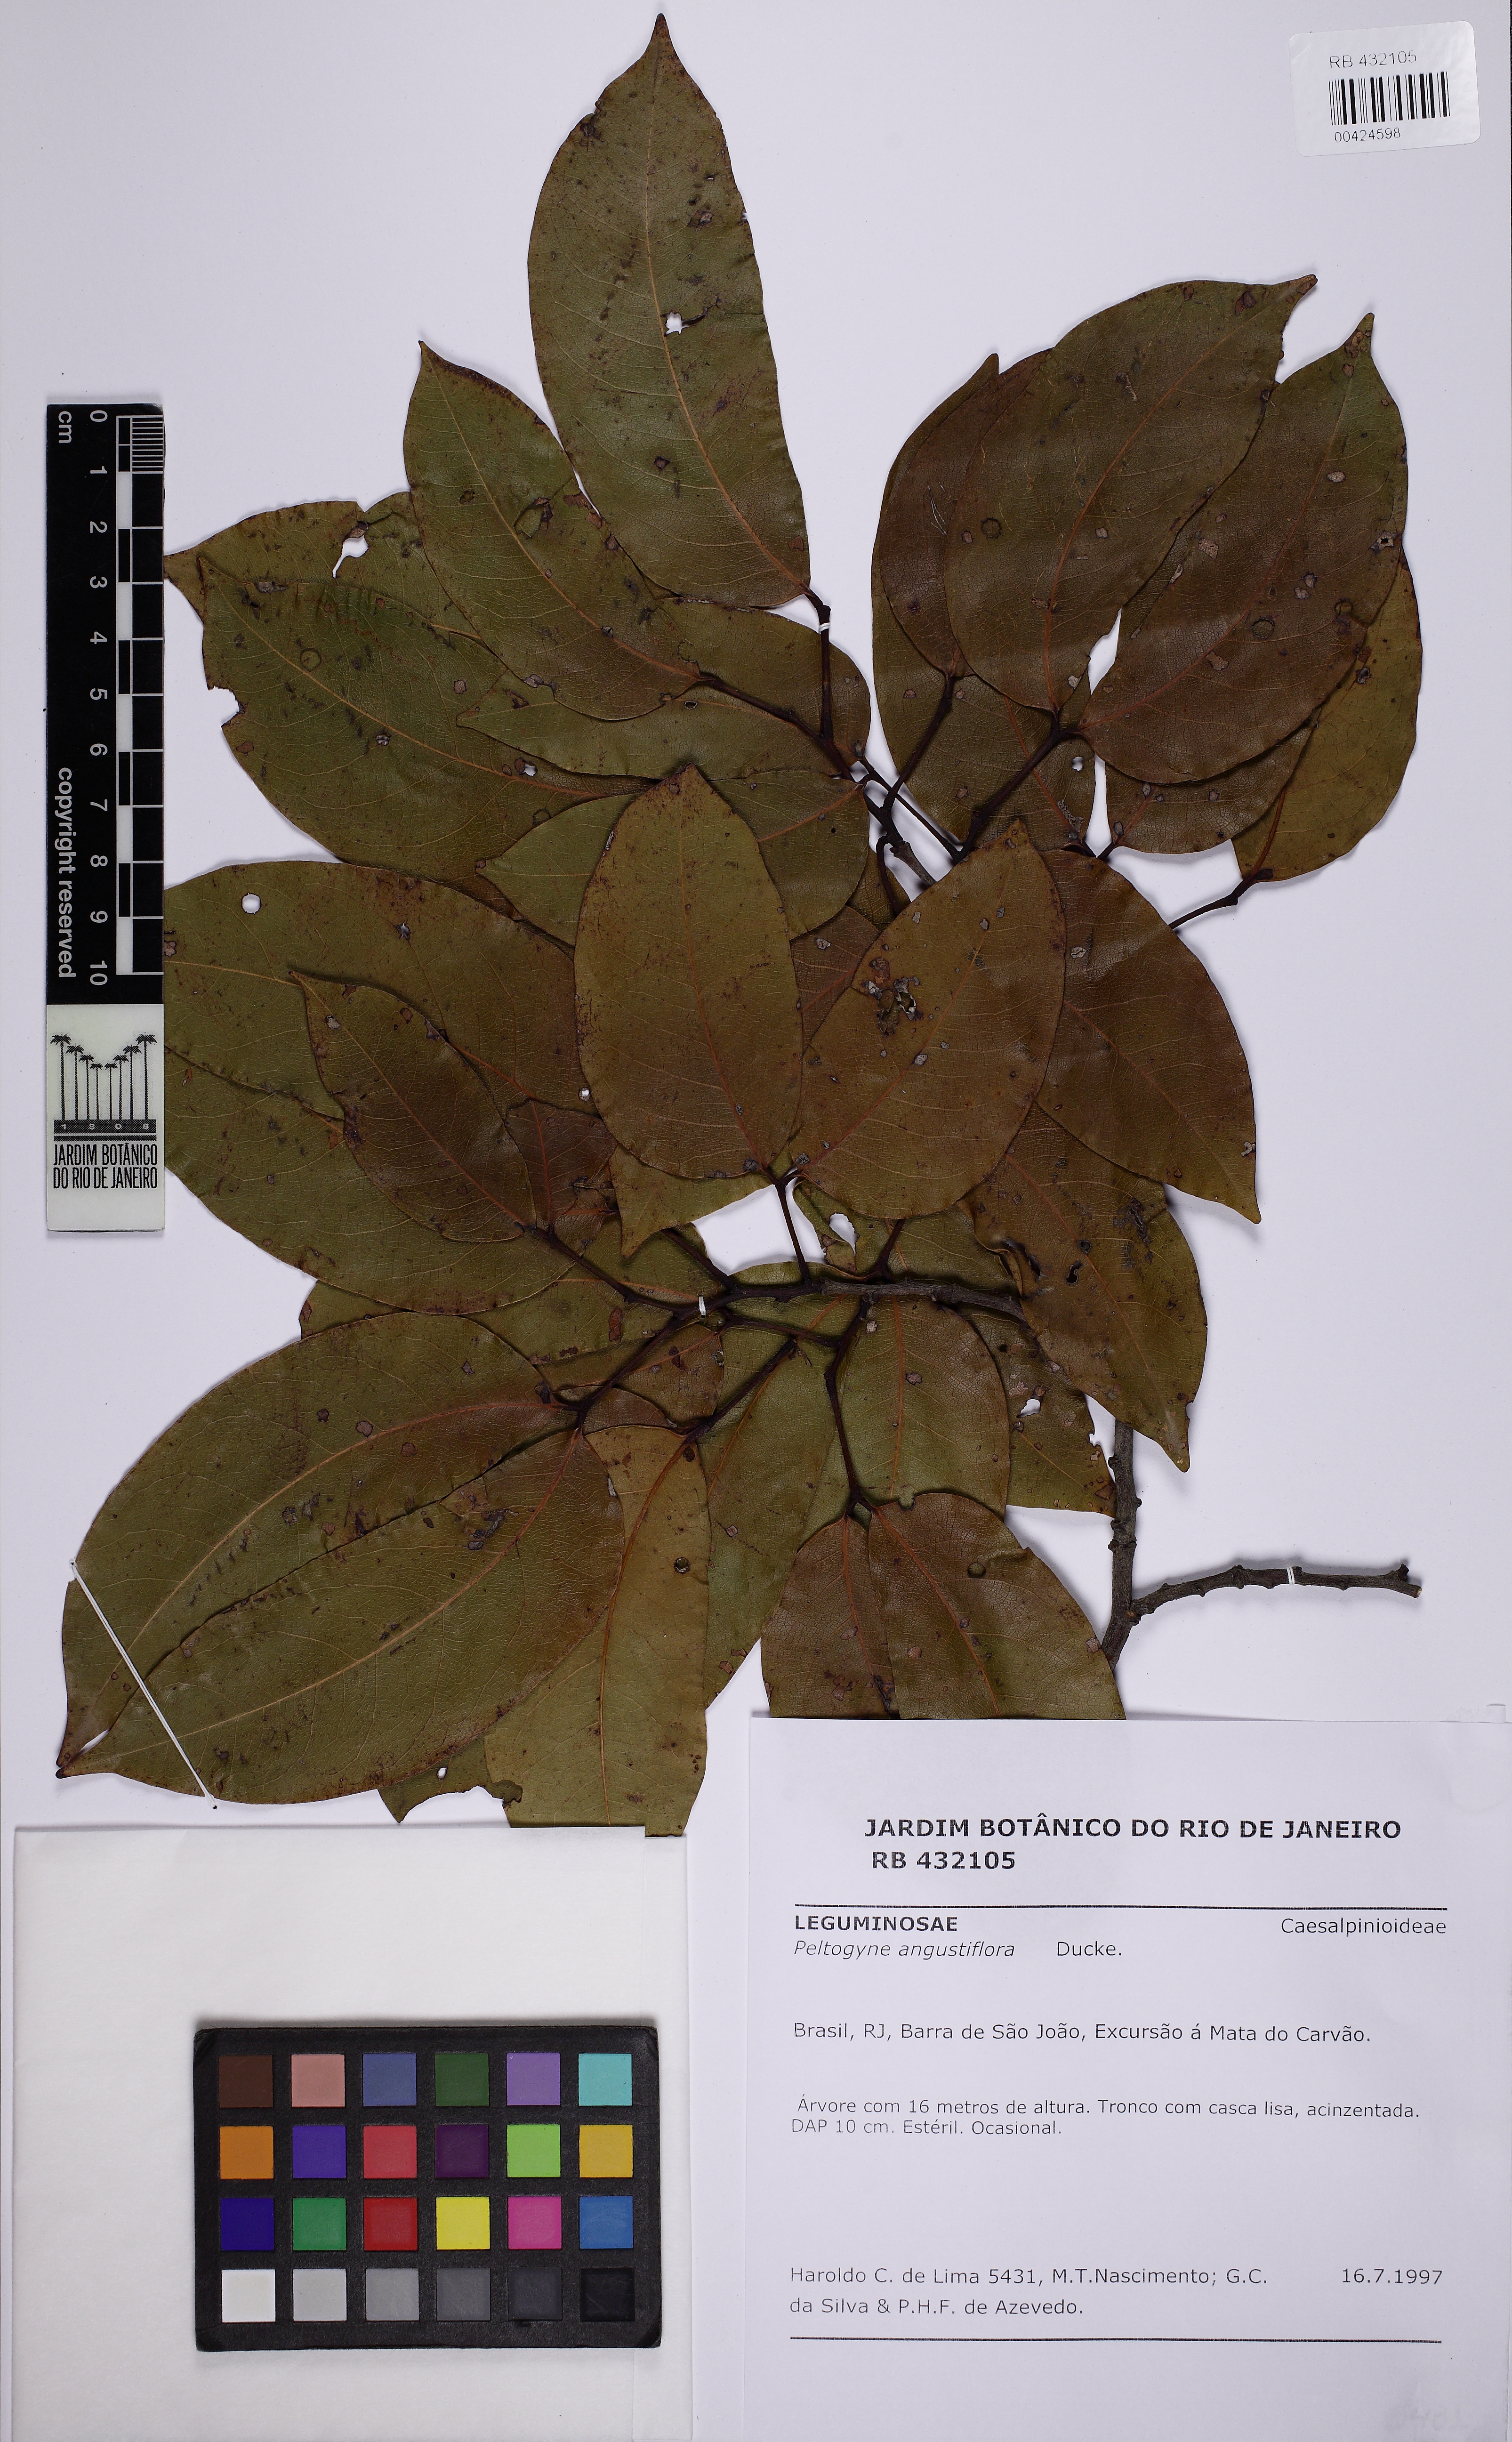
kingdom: Plantae
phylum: Tracheophyta
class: Magnoliopsida
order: Fabales
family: Fabaceae
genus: Peltogyne
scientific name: Peltogyne angustiflora
